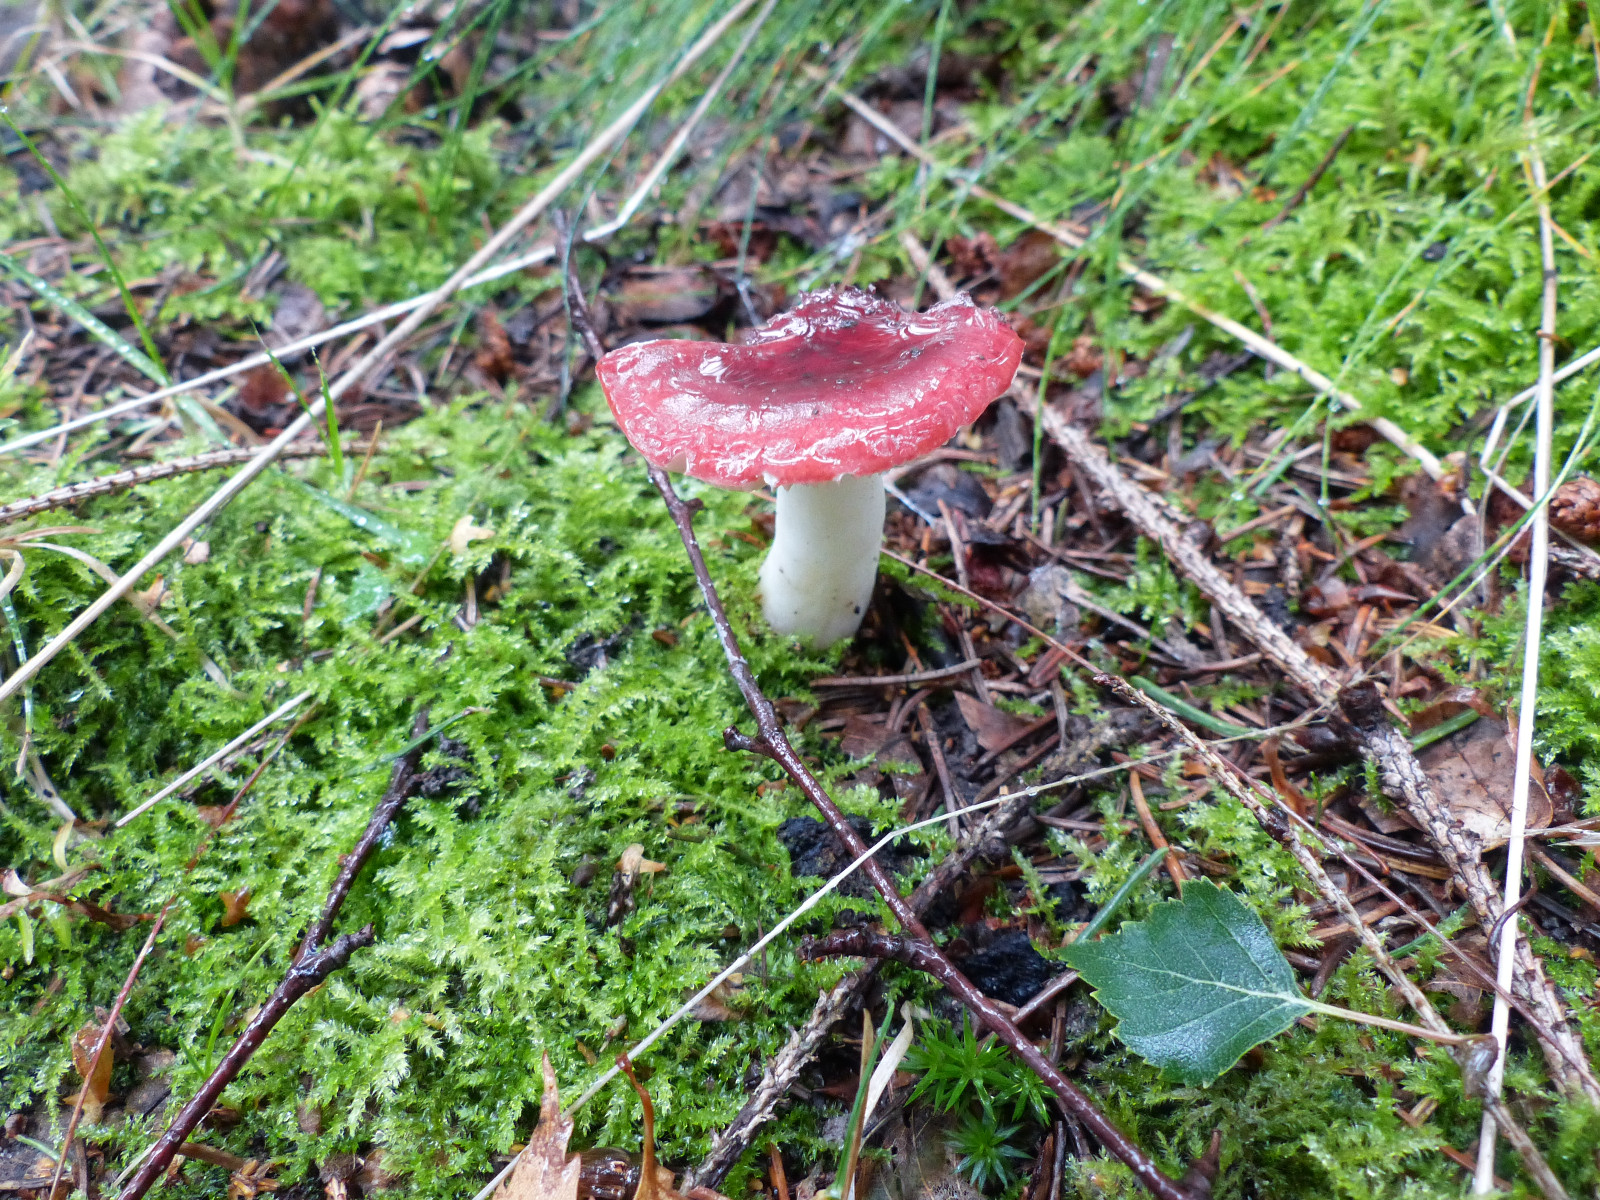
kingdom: Fungi
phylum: Basidiomycota
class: Agaricomycetes
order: Russulales
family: Russulaceae
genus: Russula
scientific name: Russula emetica
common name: stor gift-skørhat
